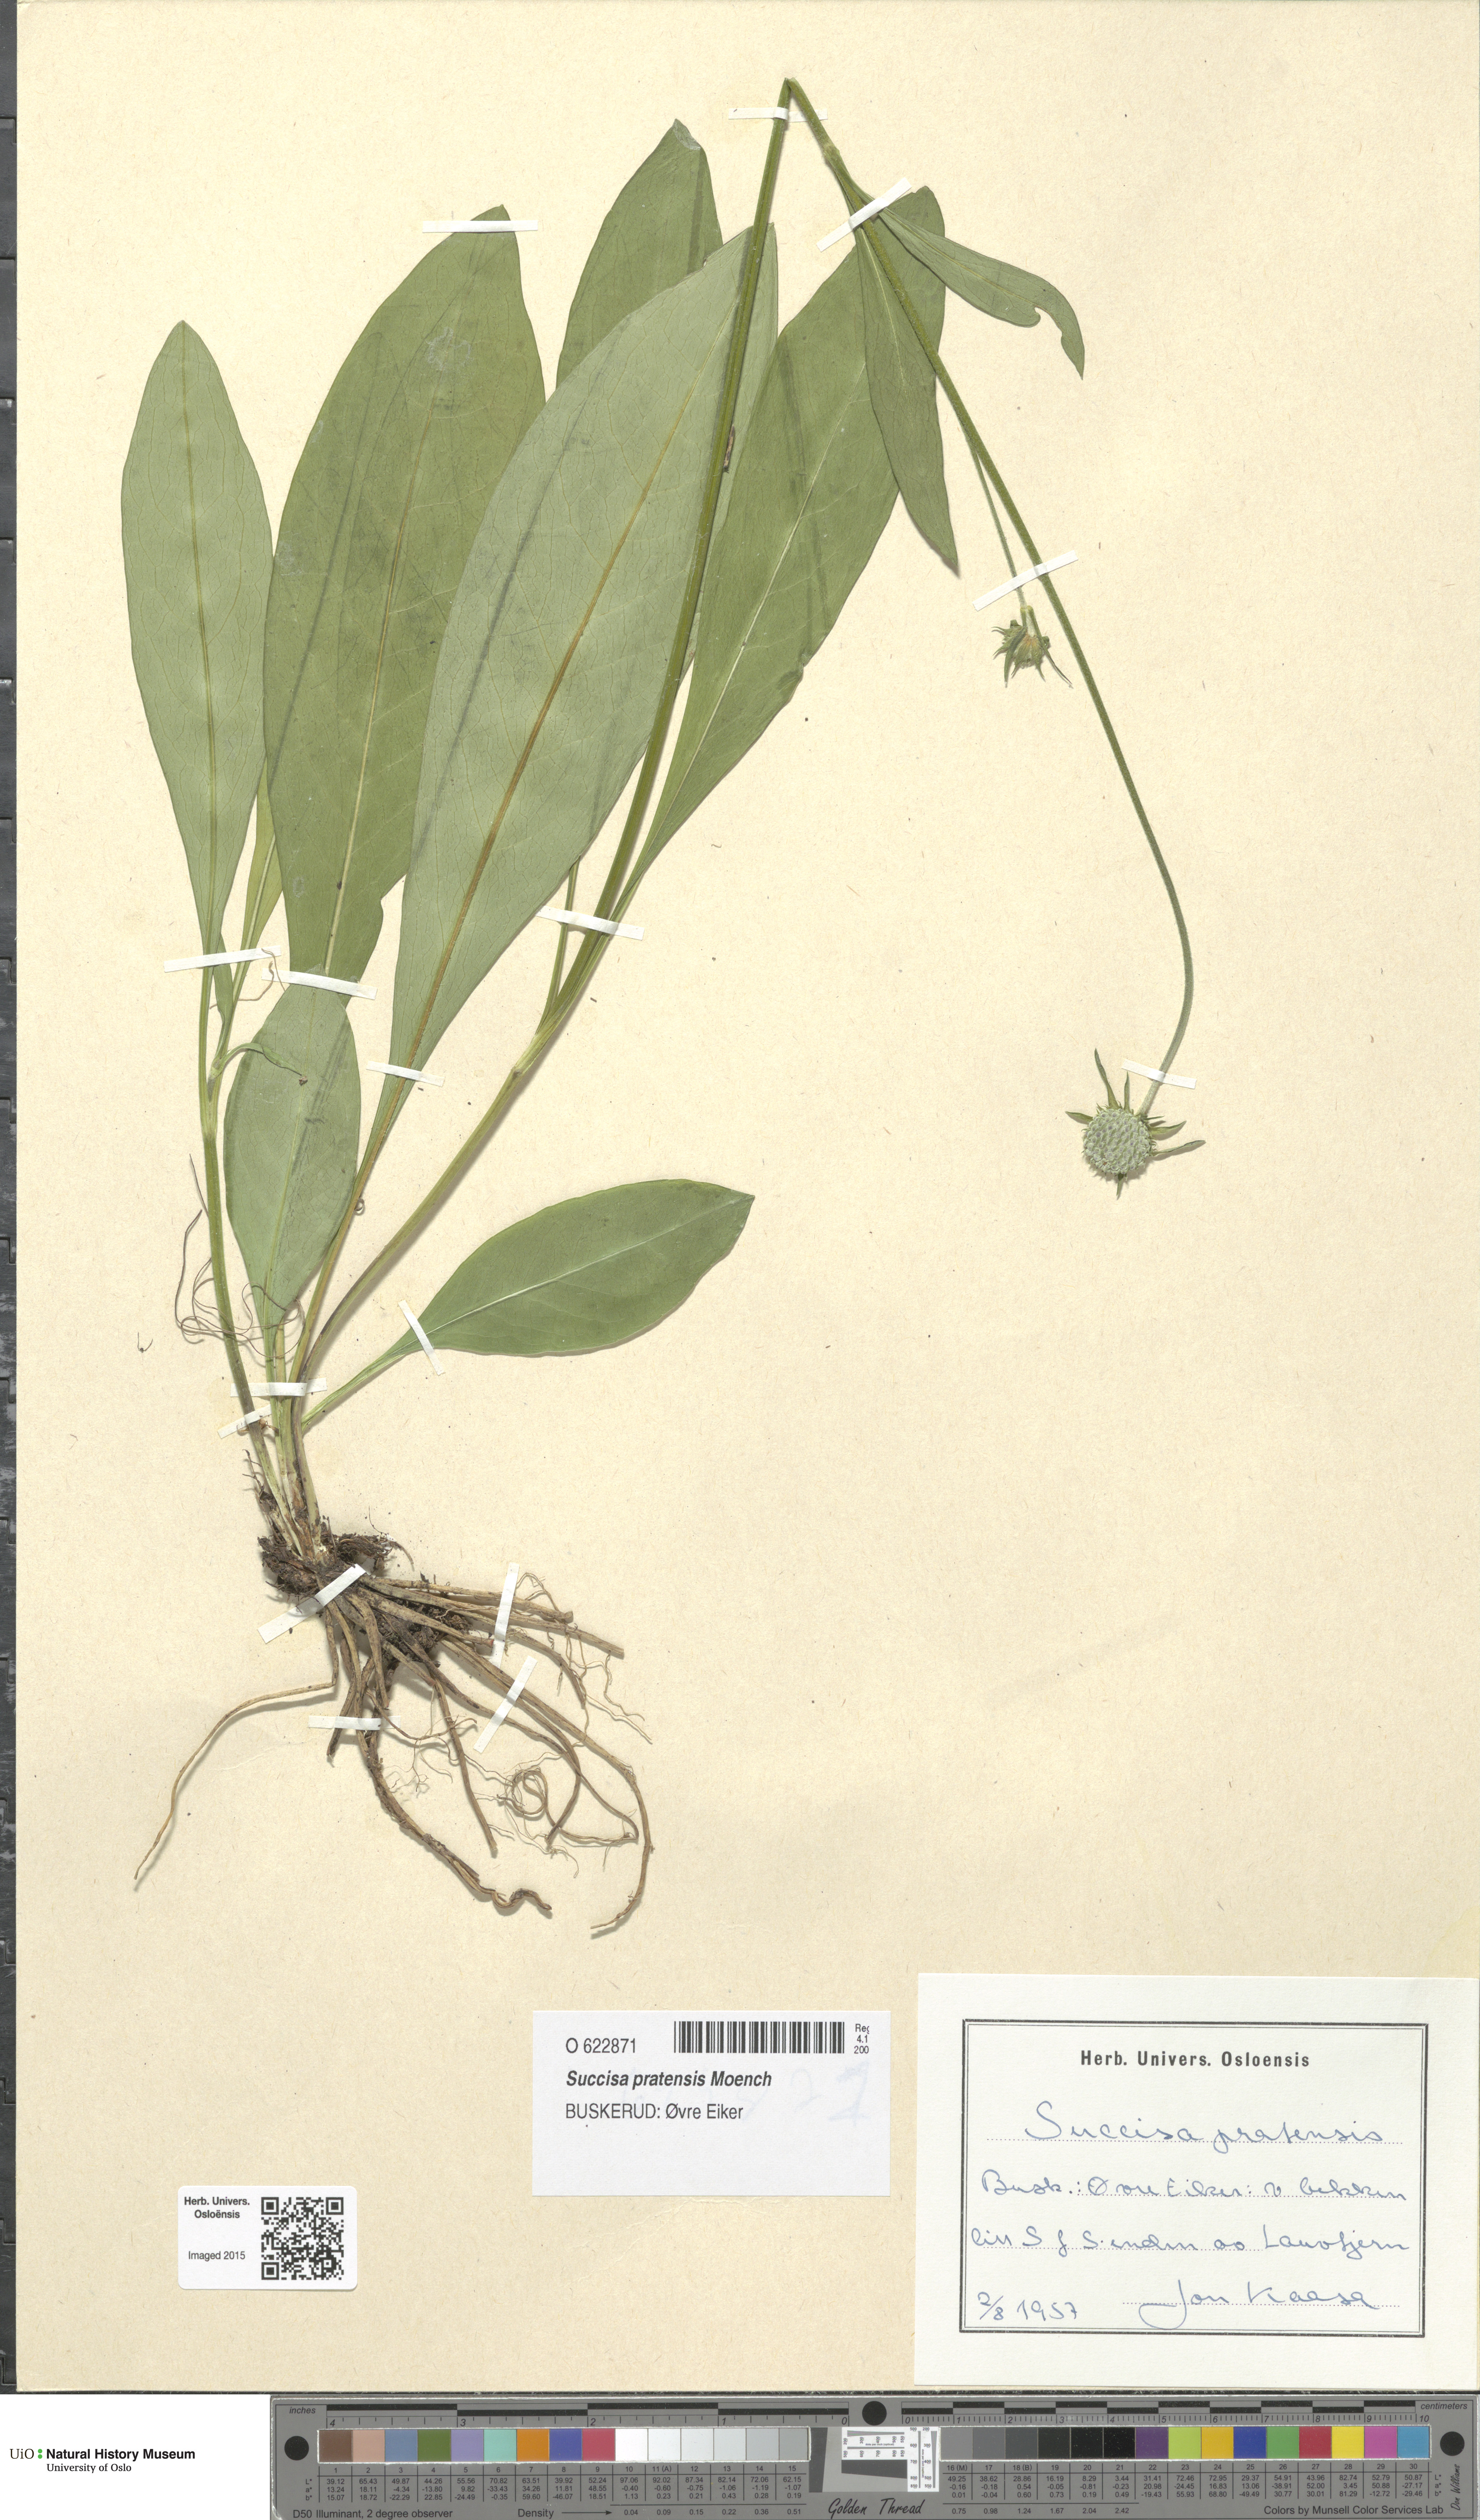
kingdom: Plantae
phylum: Tracheophyta
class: Magnoliopsida
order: Dipsacales
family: Caprifoliaceae
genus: Succisa
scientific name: Succisa pratensis
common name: Devil's-bit
